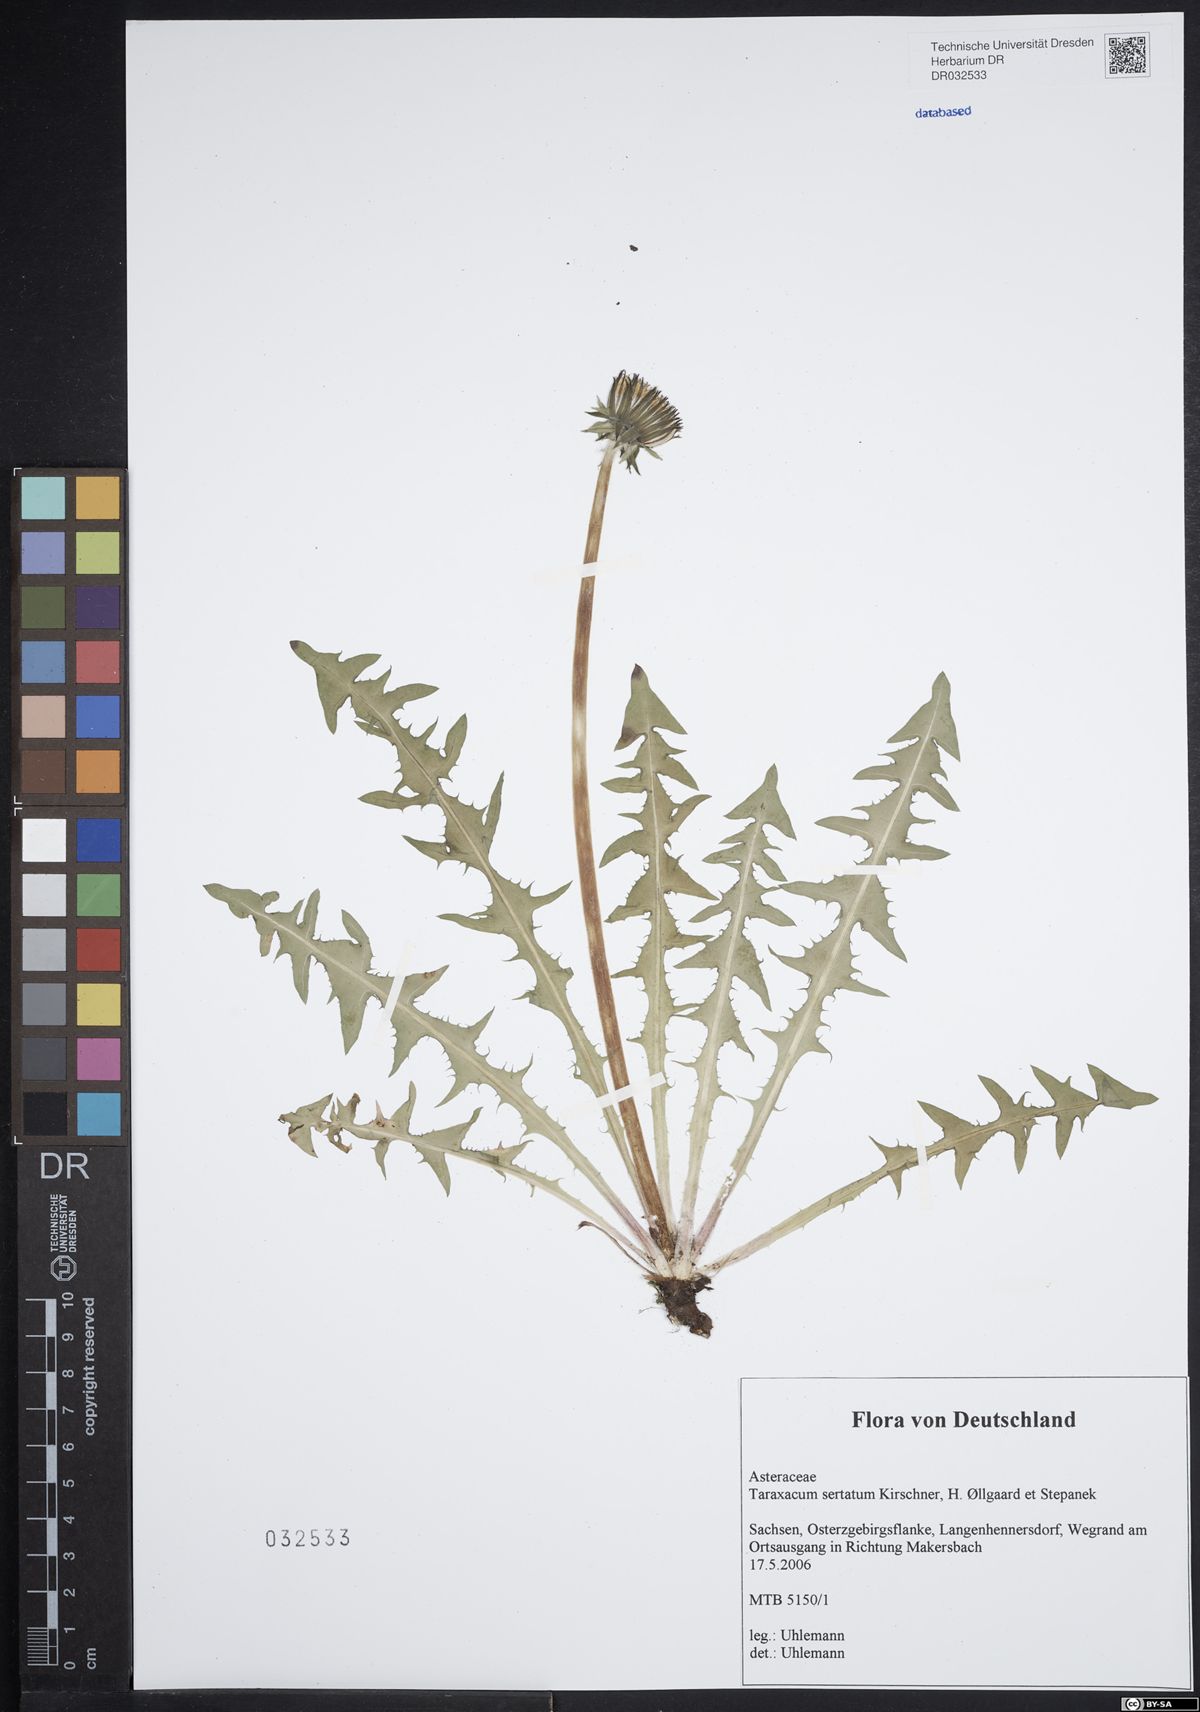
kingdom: Plantae
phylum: Tracheophyta
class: Magnoliopsida
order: Asterales
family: Asteraceae
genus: Taraxacum
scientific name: Taraxacum sertatum
